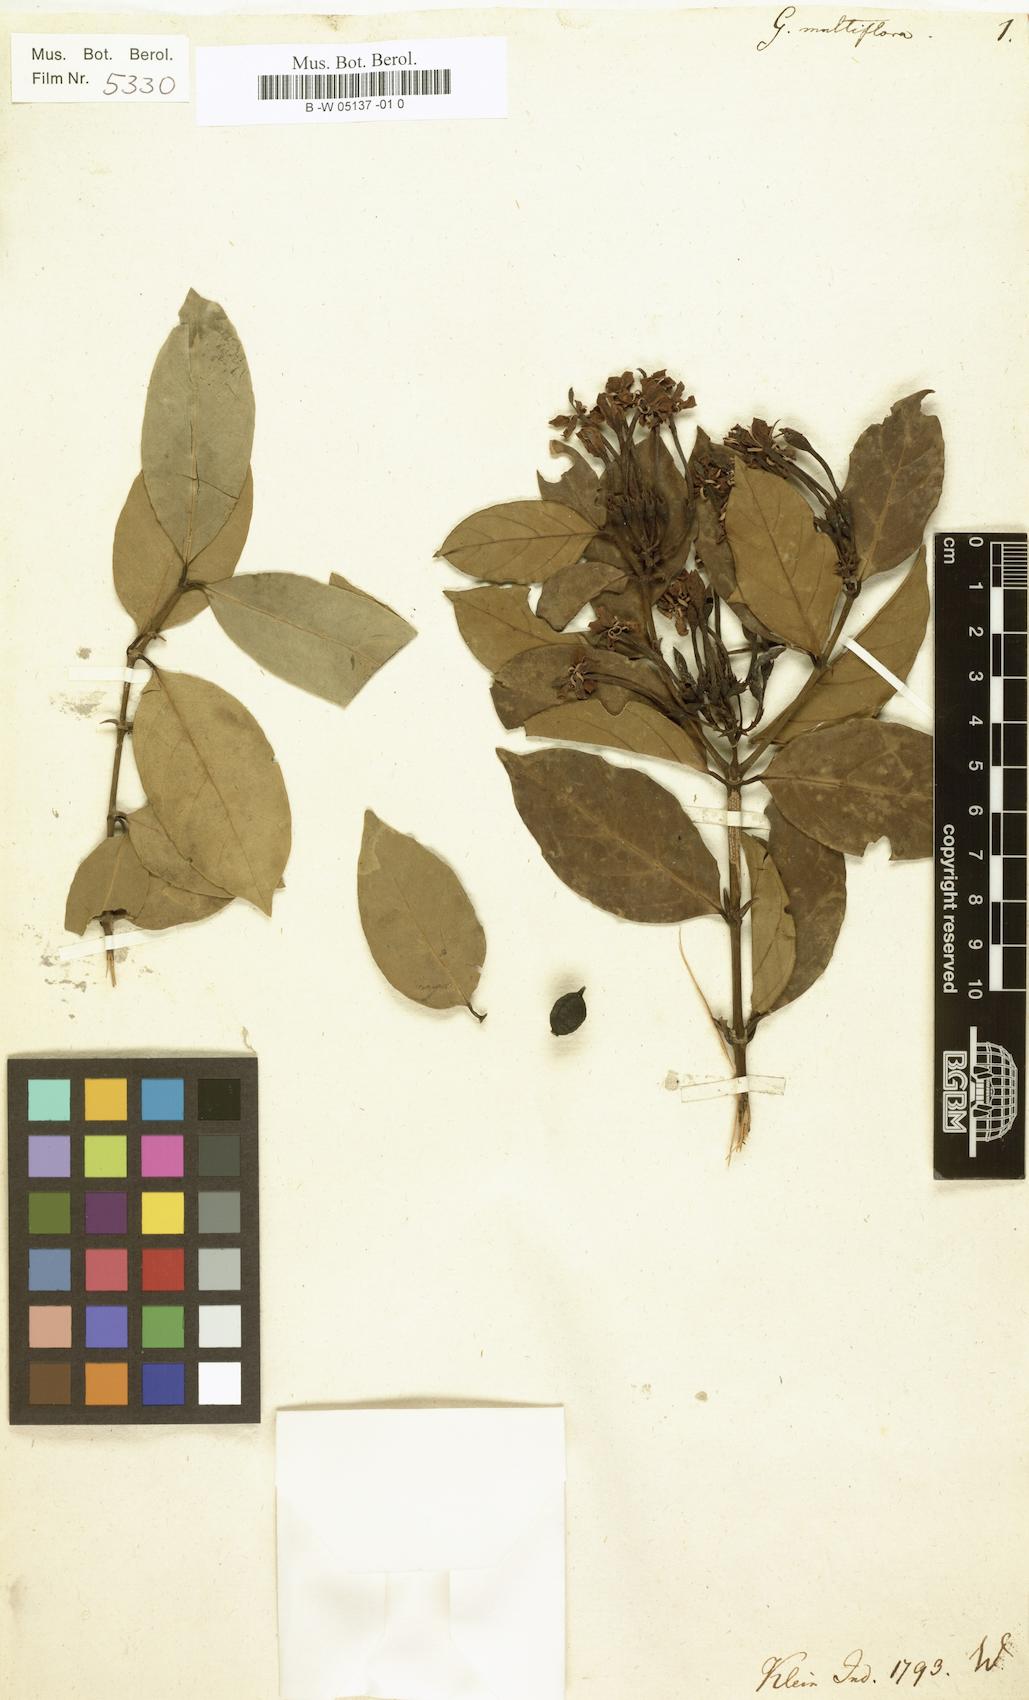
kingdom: Plantae
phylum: Tracheophyta
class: Magnoliopsida
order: Gentianales
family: Rubiaceae
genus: Oxyceros
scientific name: Oxyceros longiflorus
